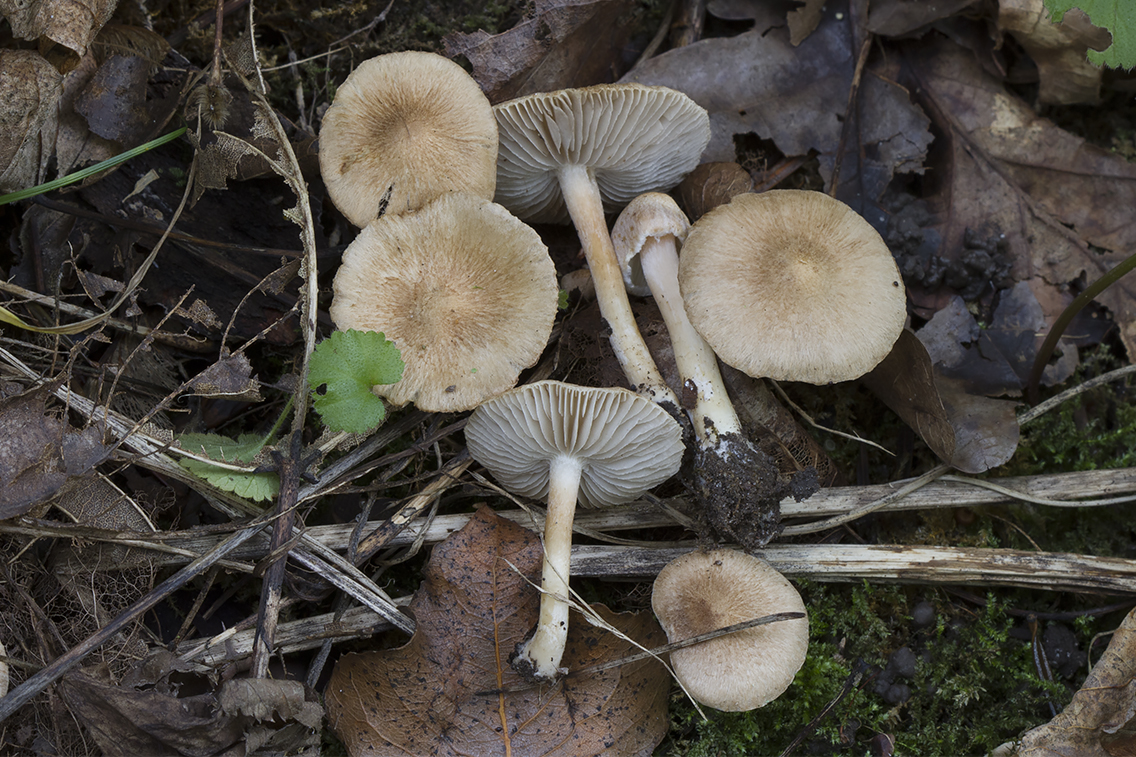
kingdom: Fungi
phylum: Basidiomycota
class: Agaricomycetes
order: Agaricales
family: Inocybaceae
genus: Inocybe
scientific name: Inocybe sindonia
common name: bleg trævlhat
